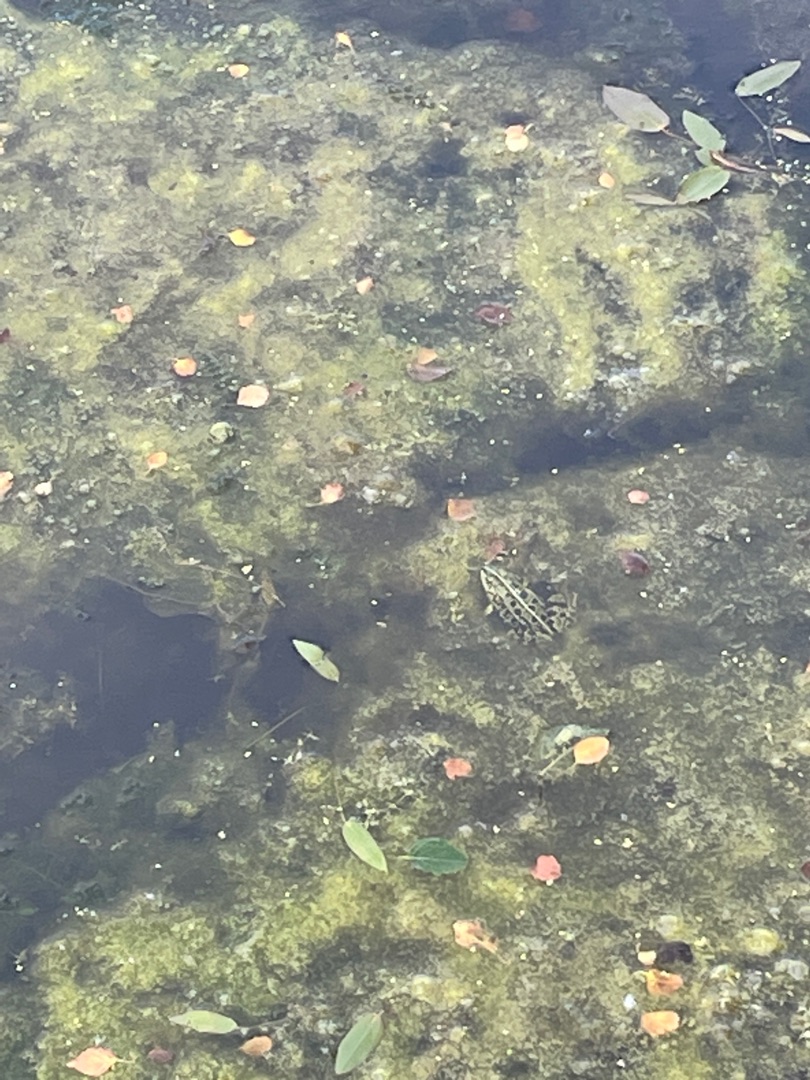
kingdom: Animalia
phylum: Chordata
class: Amphibia
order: Anura
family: Ranidae
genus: Pelophylax
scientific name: Pelophylax lessonae
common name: Grøn frø
